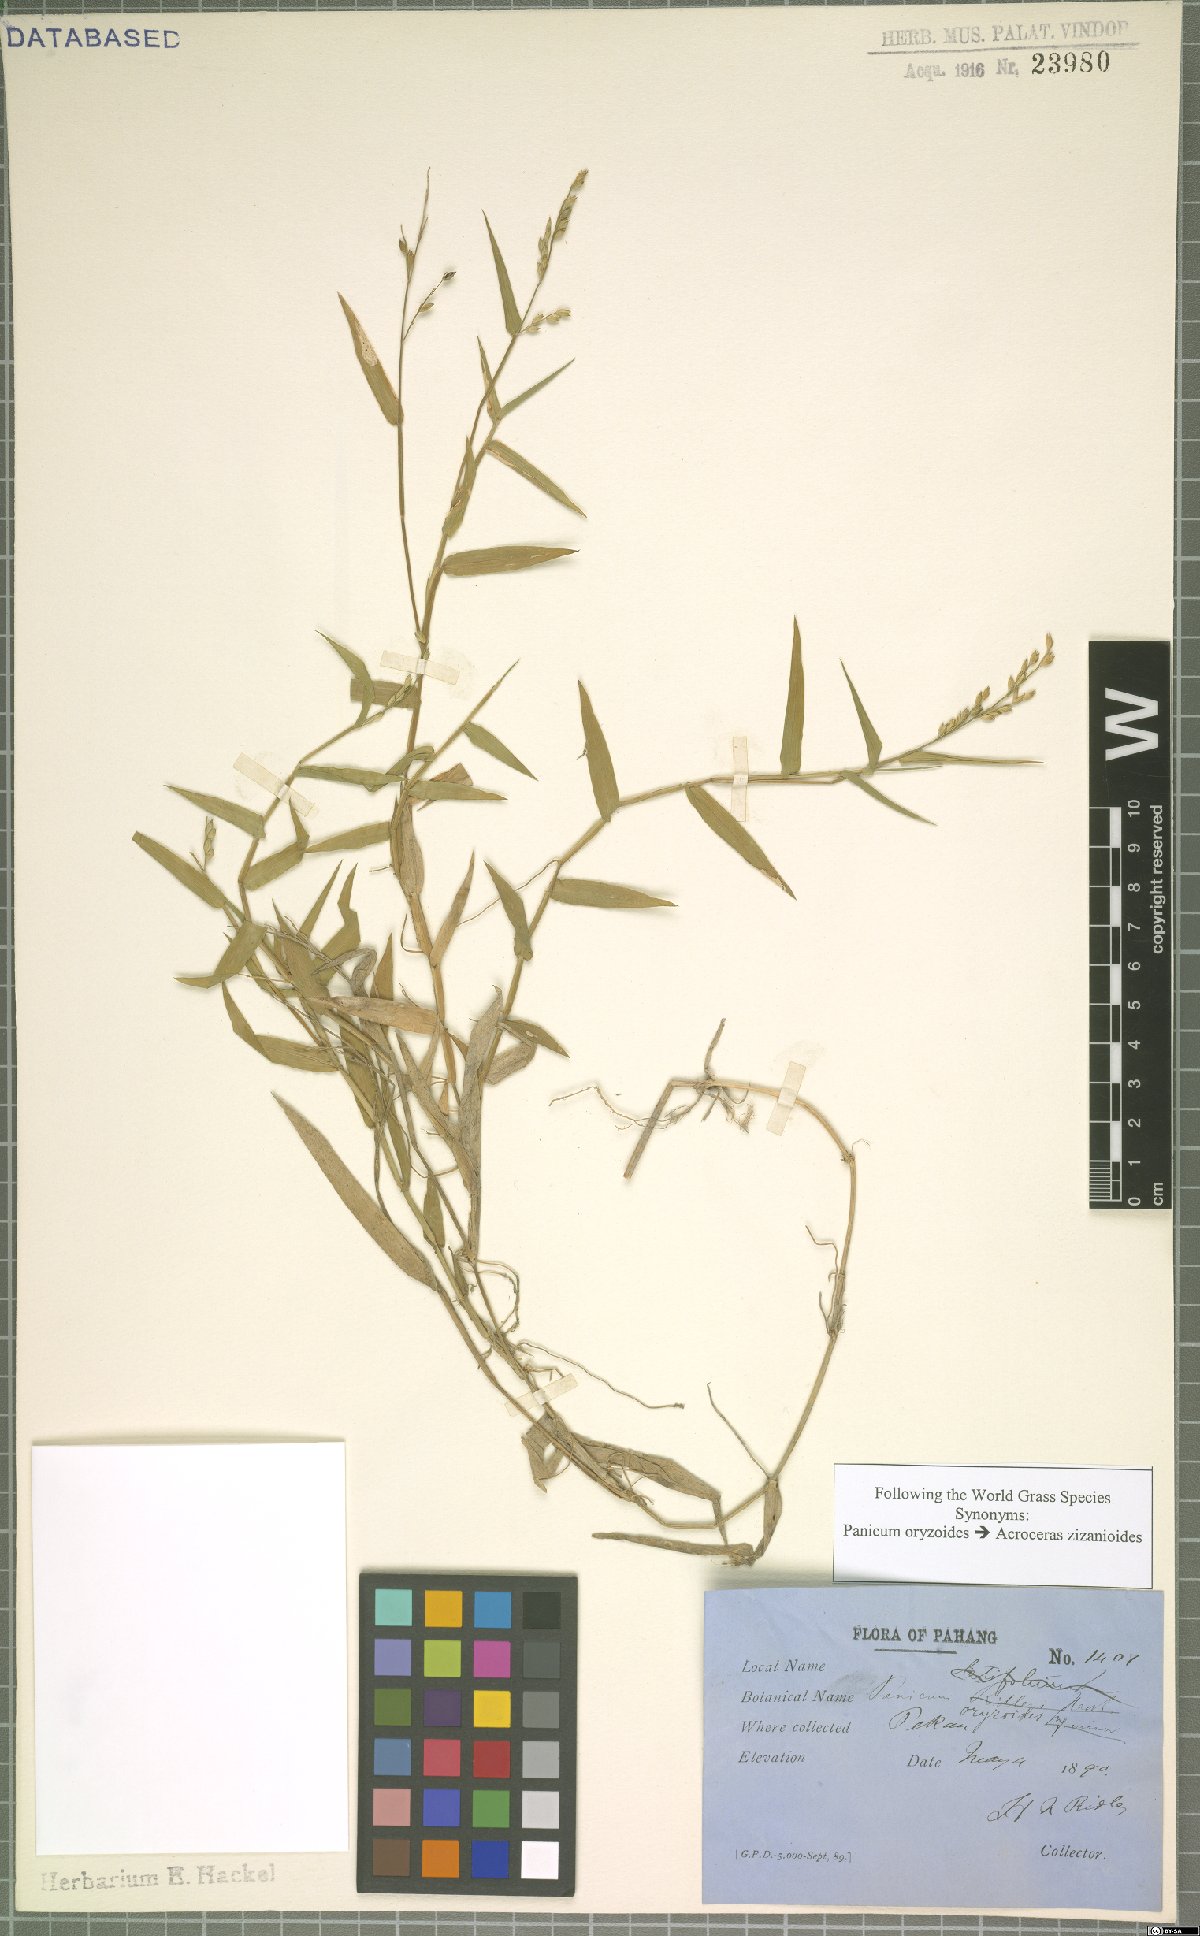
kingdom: Plantae
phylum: Tracheophyta
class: Liliopsida
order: Poales
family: Poaceae
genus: Acroceras
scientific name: Acroceras zizanioides
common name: Oat grass
